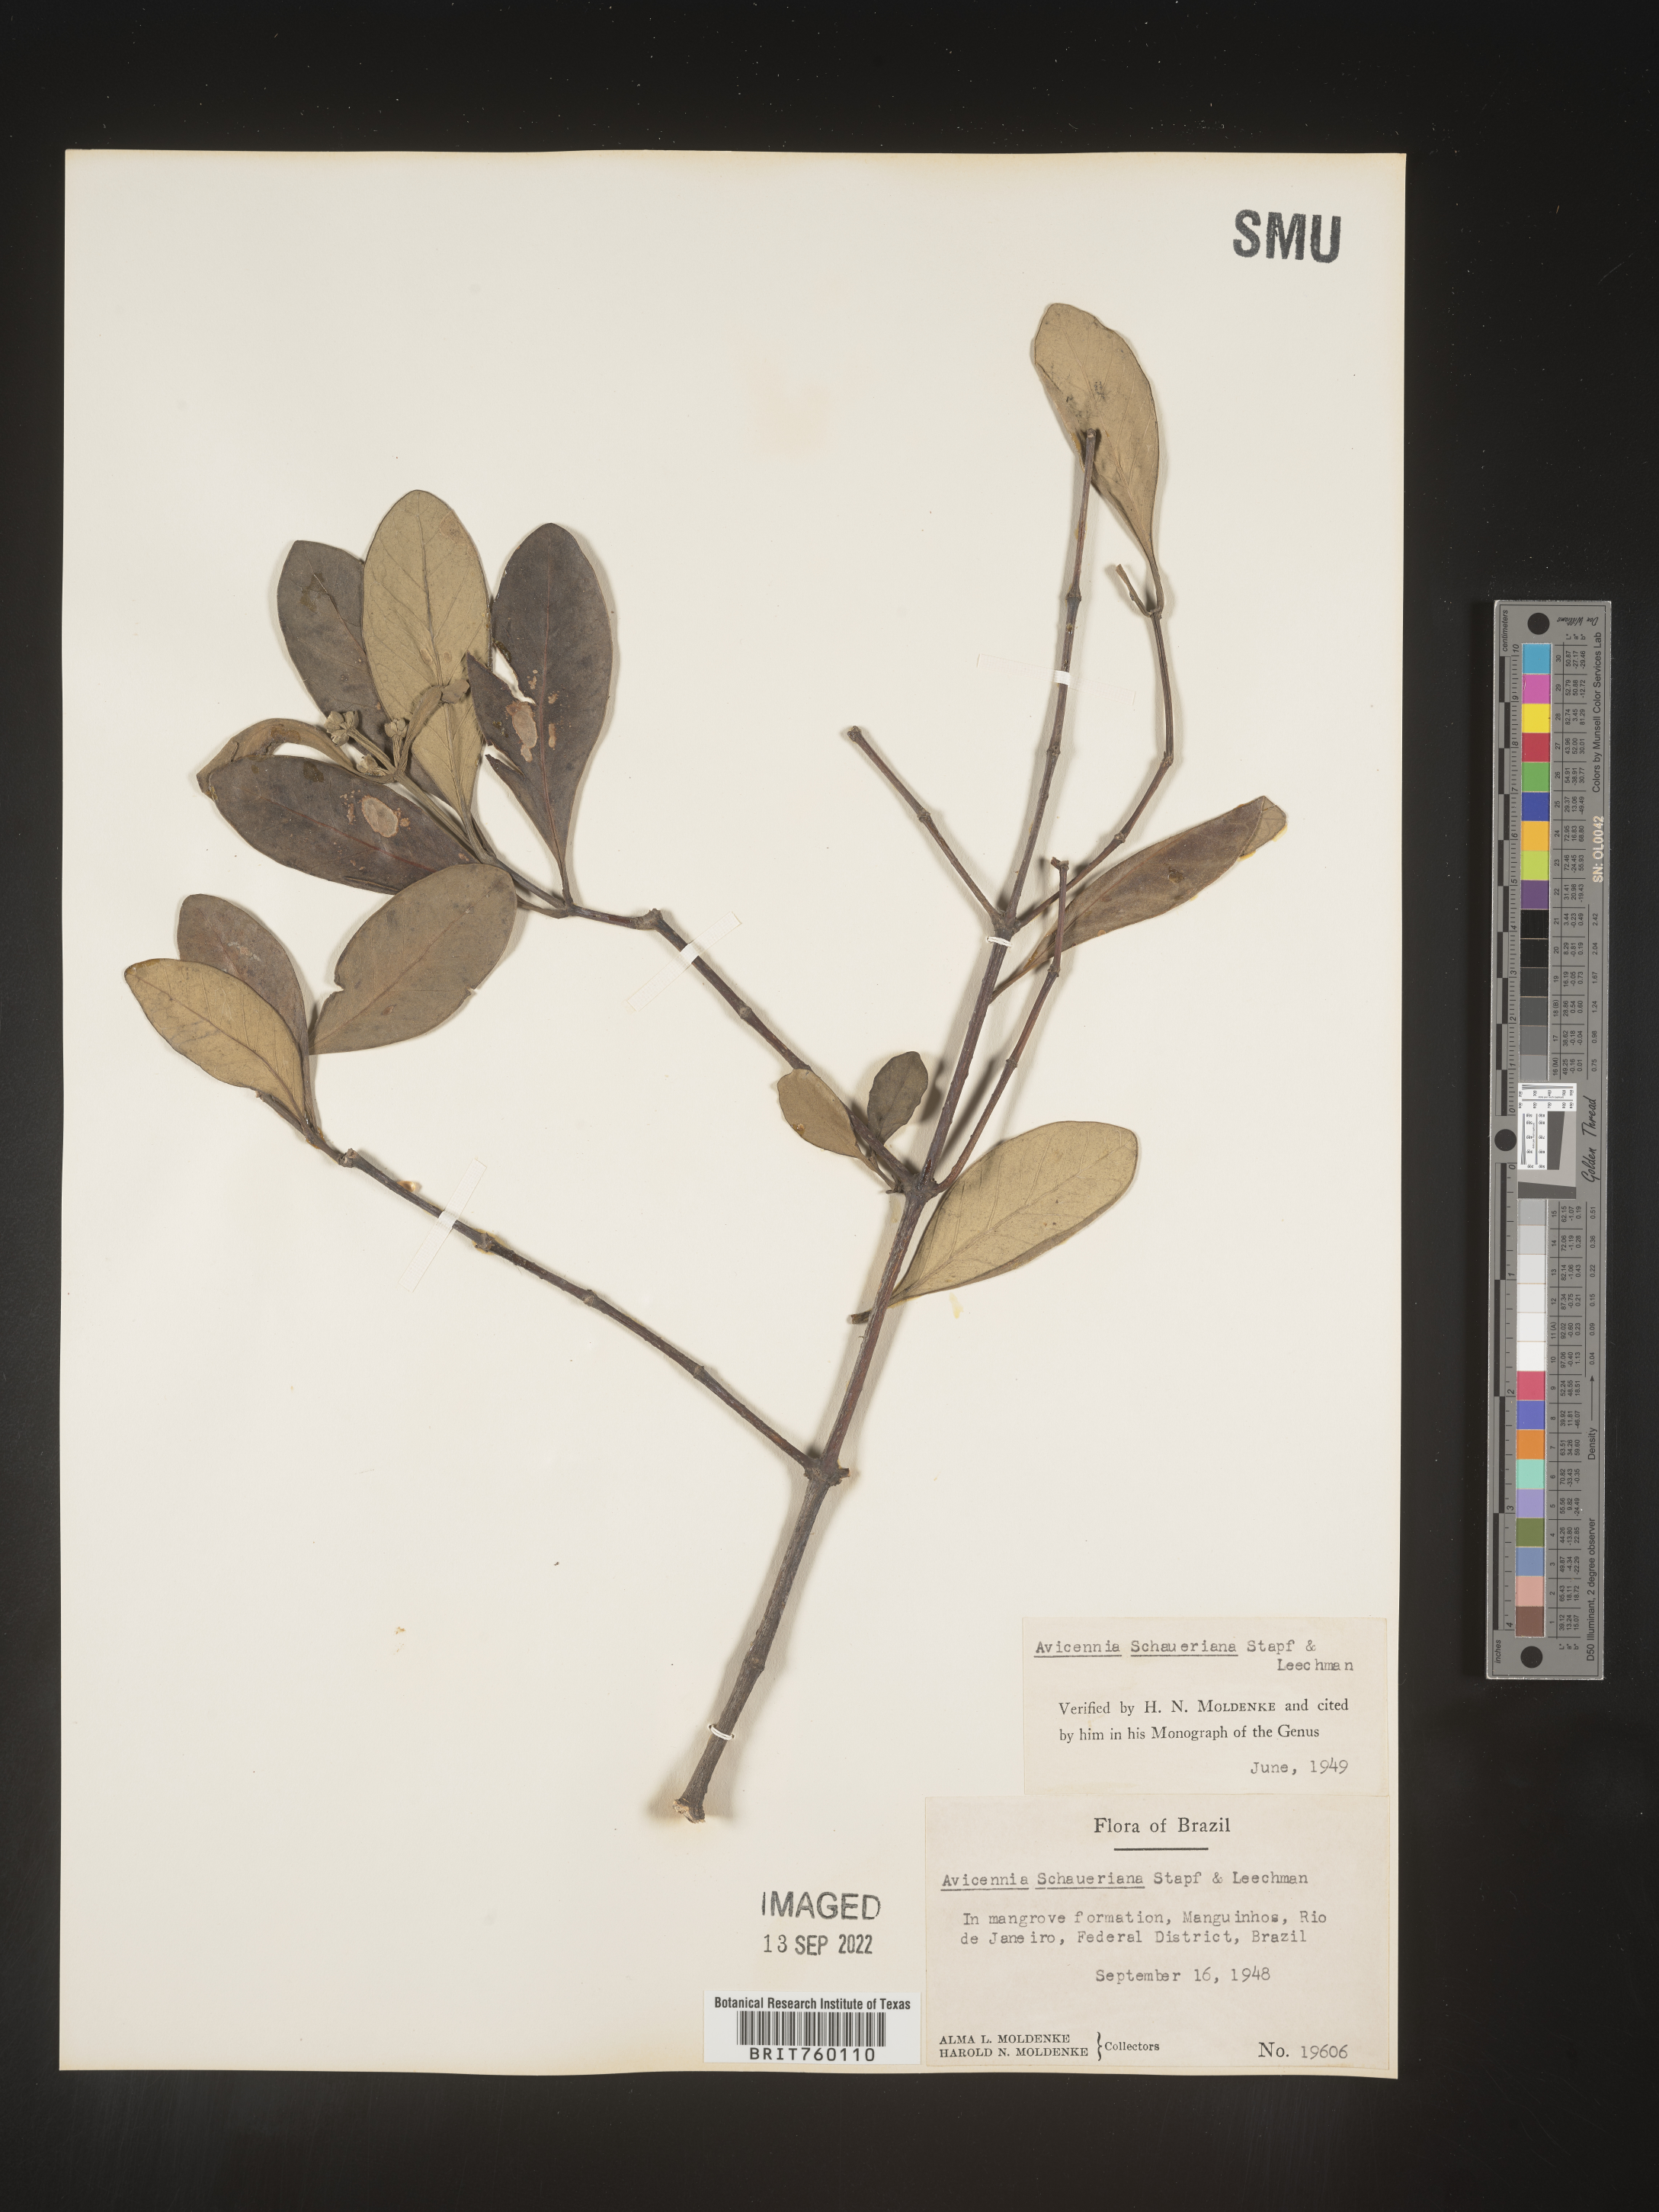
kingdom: Plantae
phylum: Tracheophyta
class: Magnoliopsida
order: Lamiales
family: Acanthaceae
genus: Avicennia
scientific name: Avicennia
